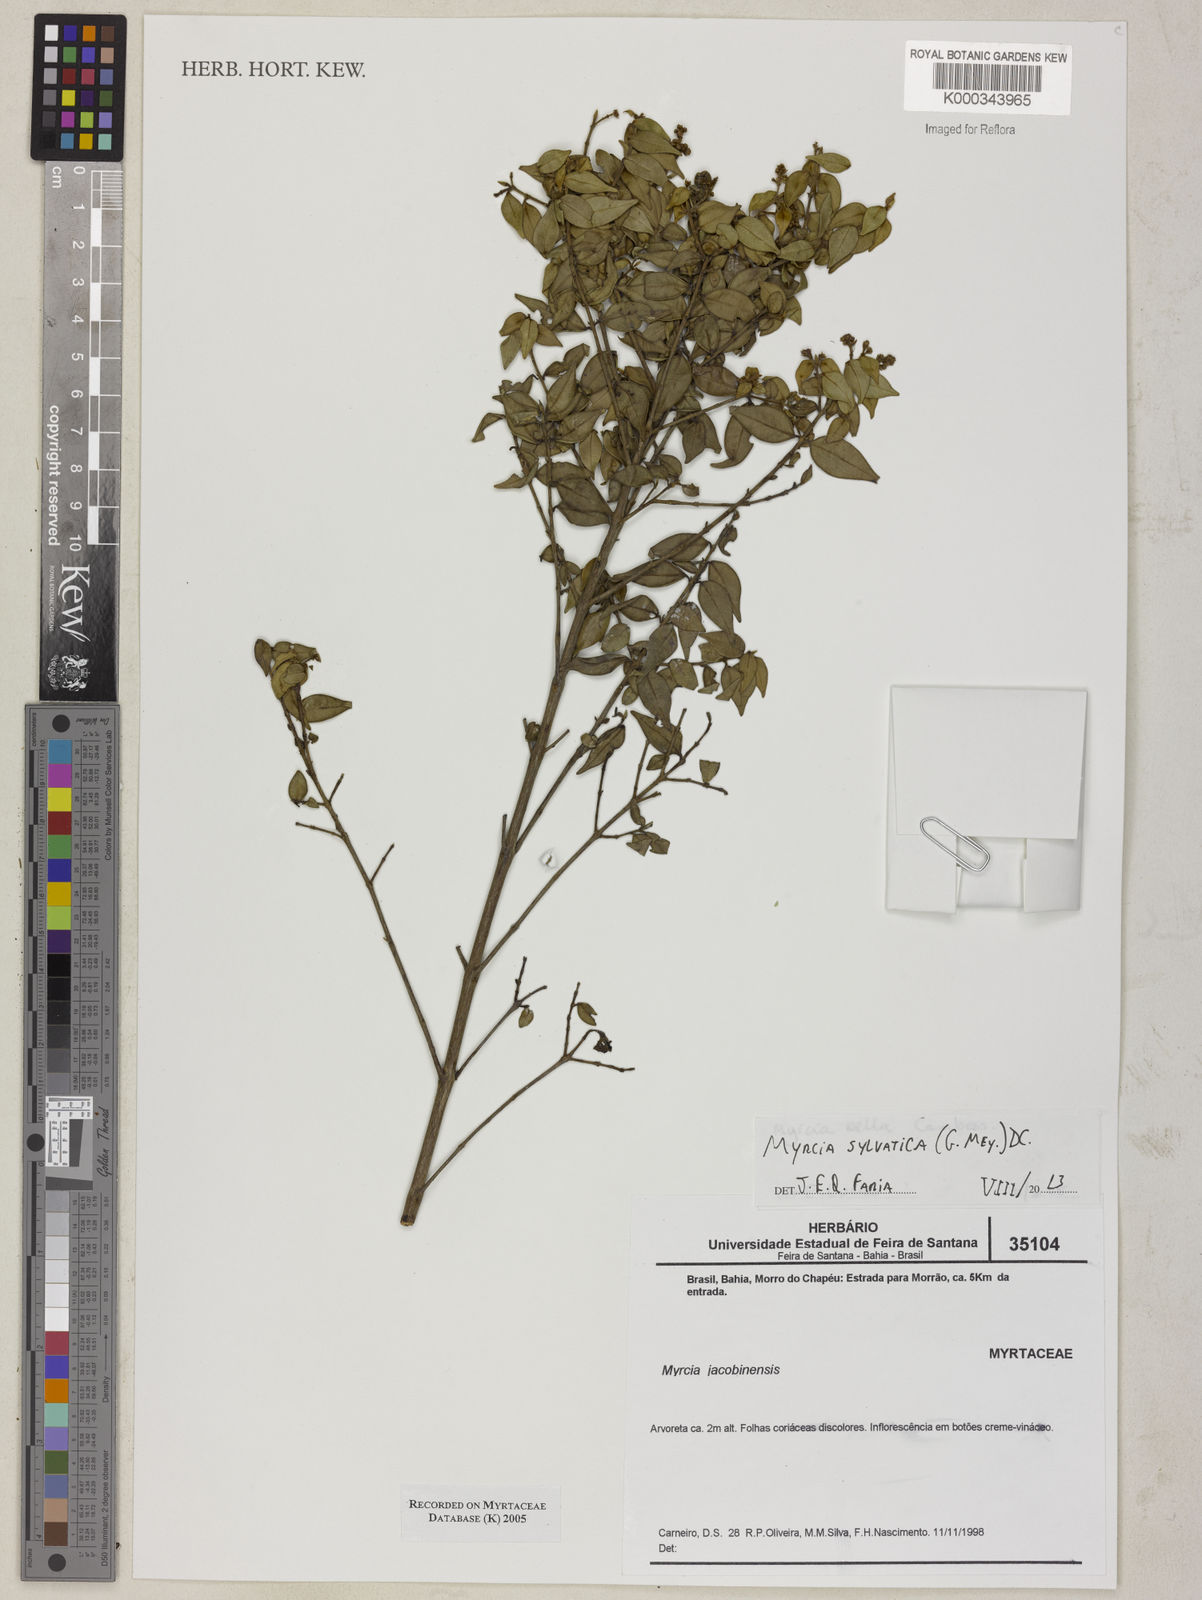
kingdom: Plantae
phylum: Tracheophyta
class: Magnoliopsida
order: Myrtales
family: Myrtaceae
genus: Myrcia
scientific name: Myrcia bella
